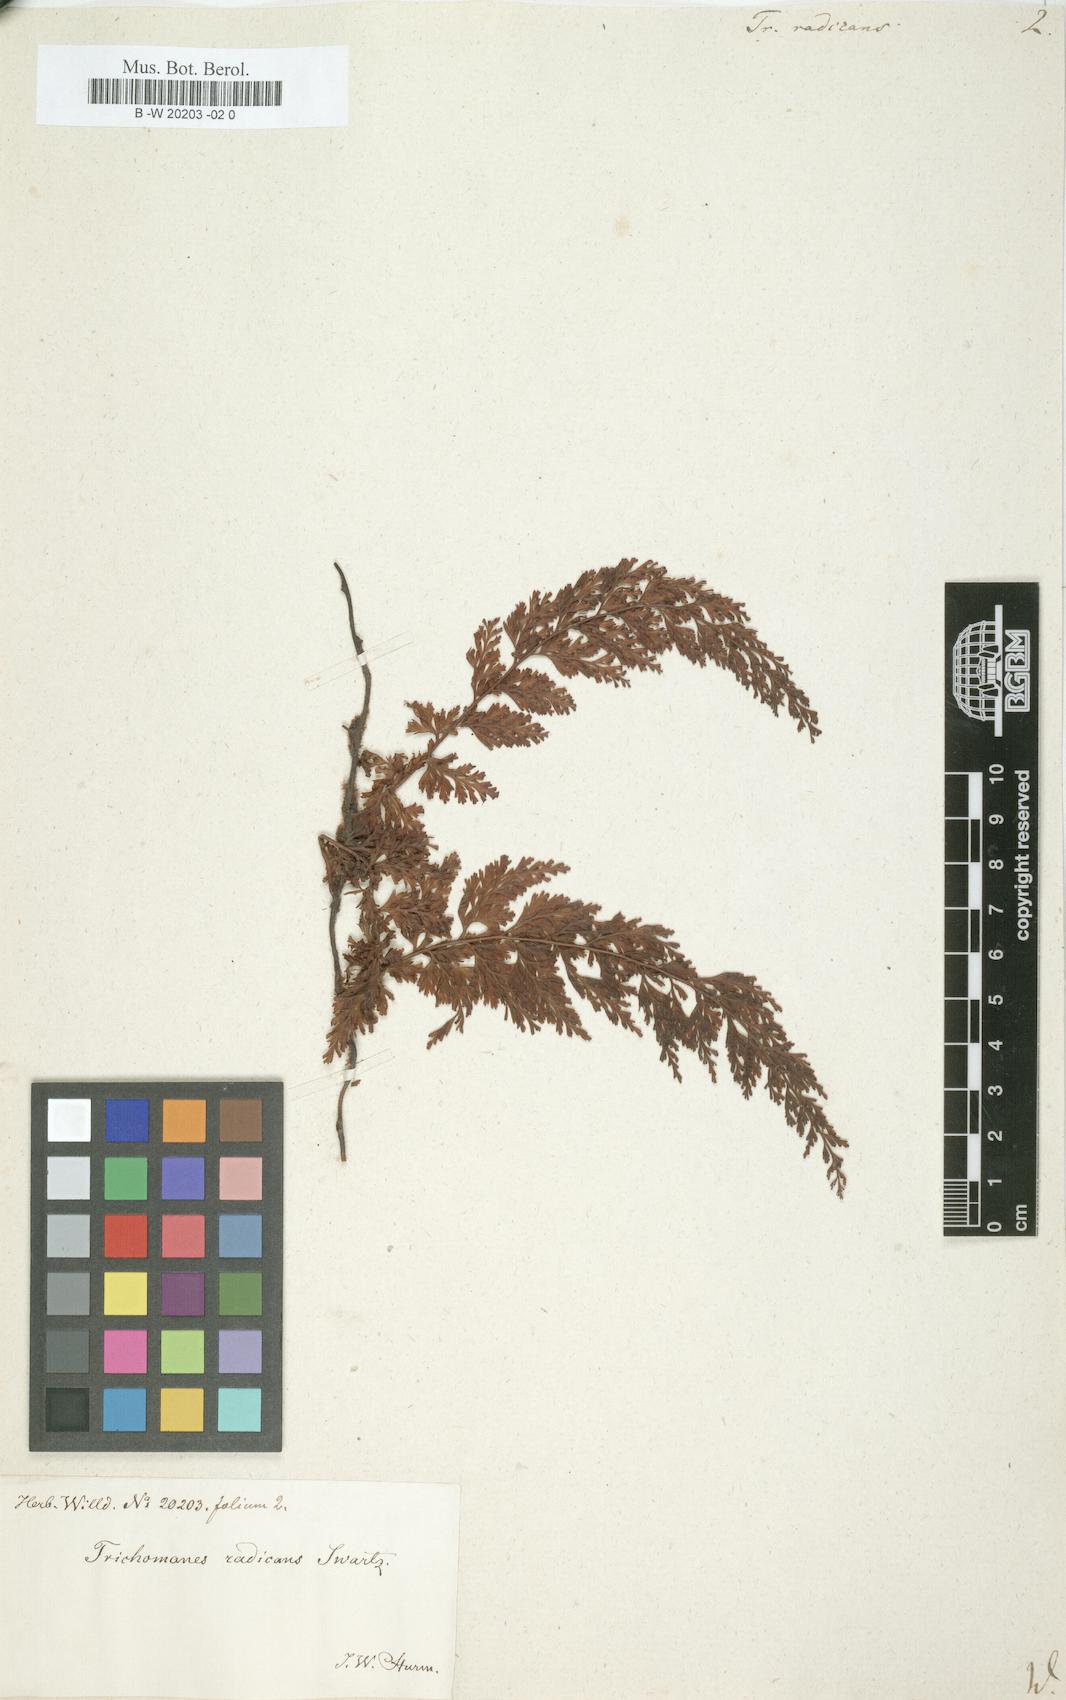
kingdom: Plantae
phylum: Tracheophyta
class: Polypodiopsida
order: Hymenophyllales
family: Hymenophyllaceae
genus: Vandenboschia
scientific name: Vandenboschia radicans
